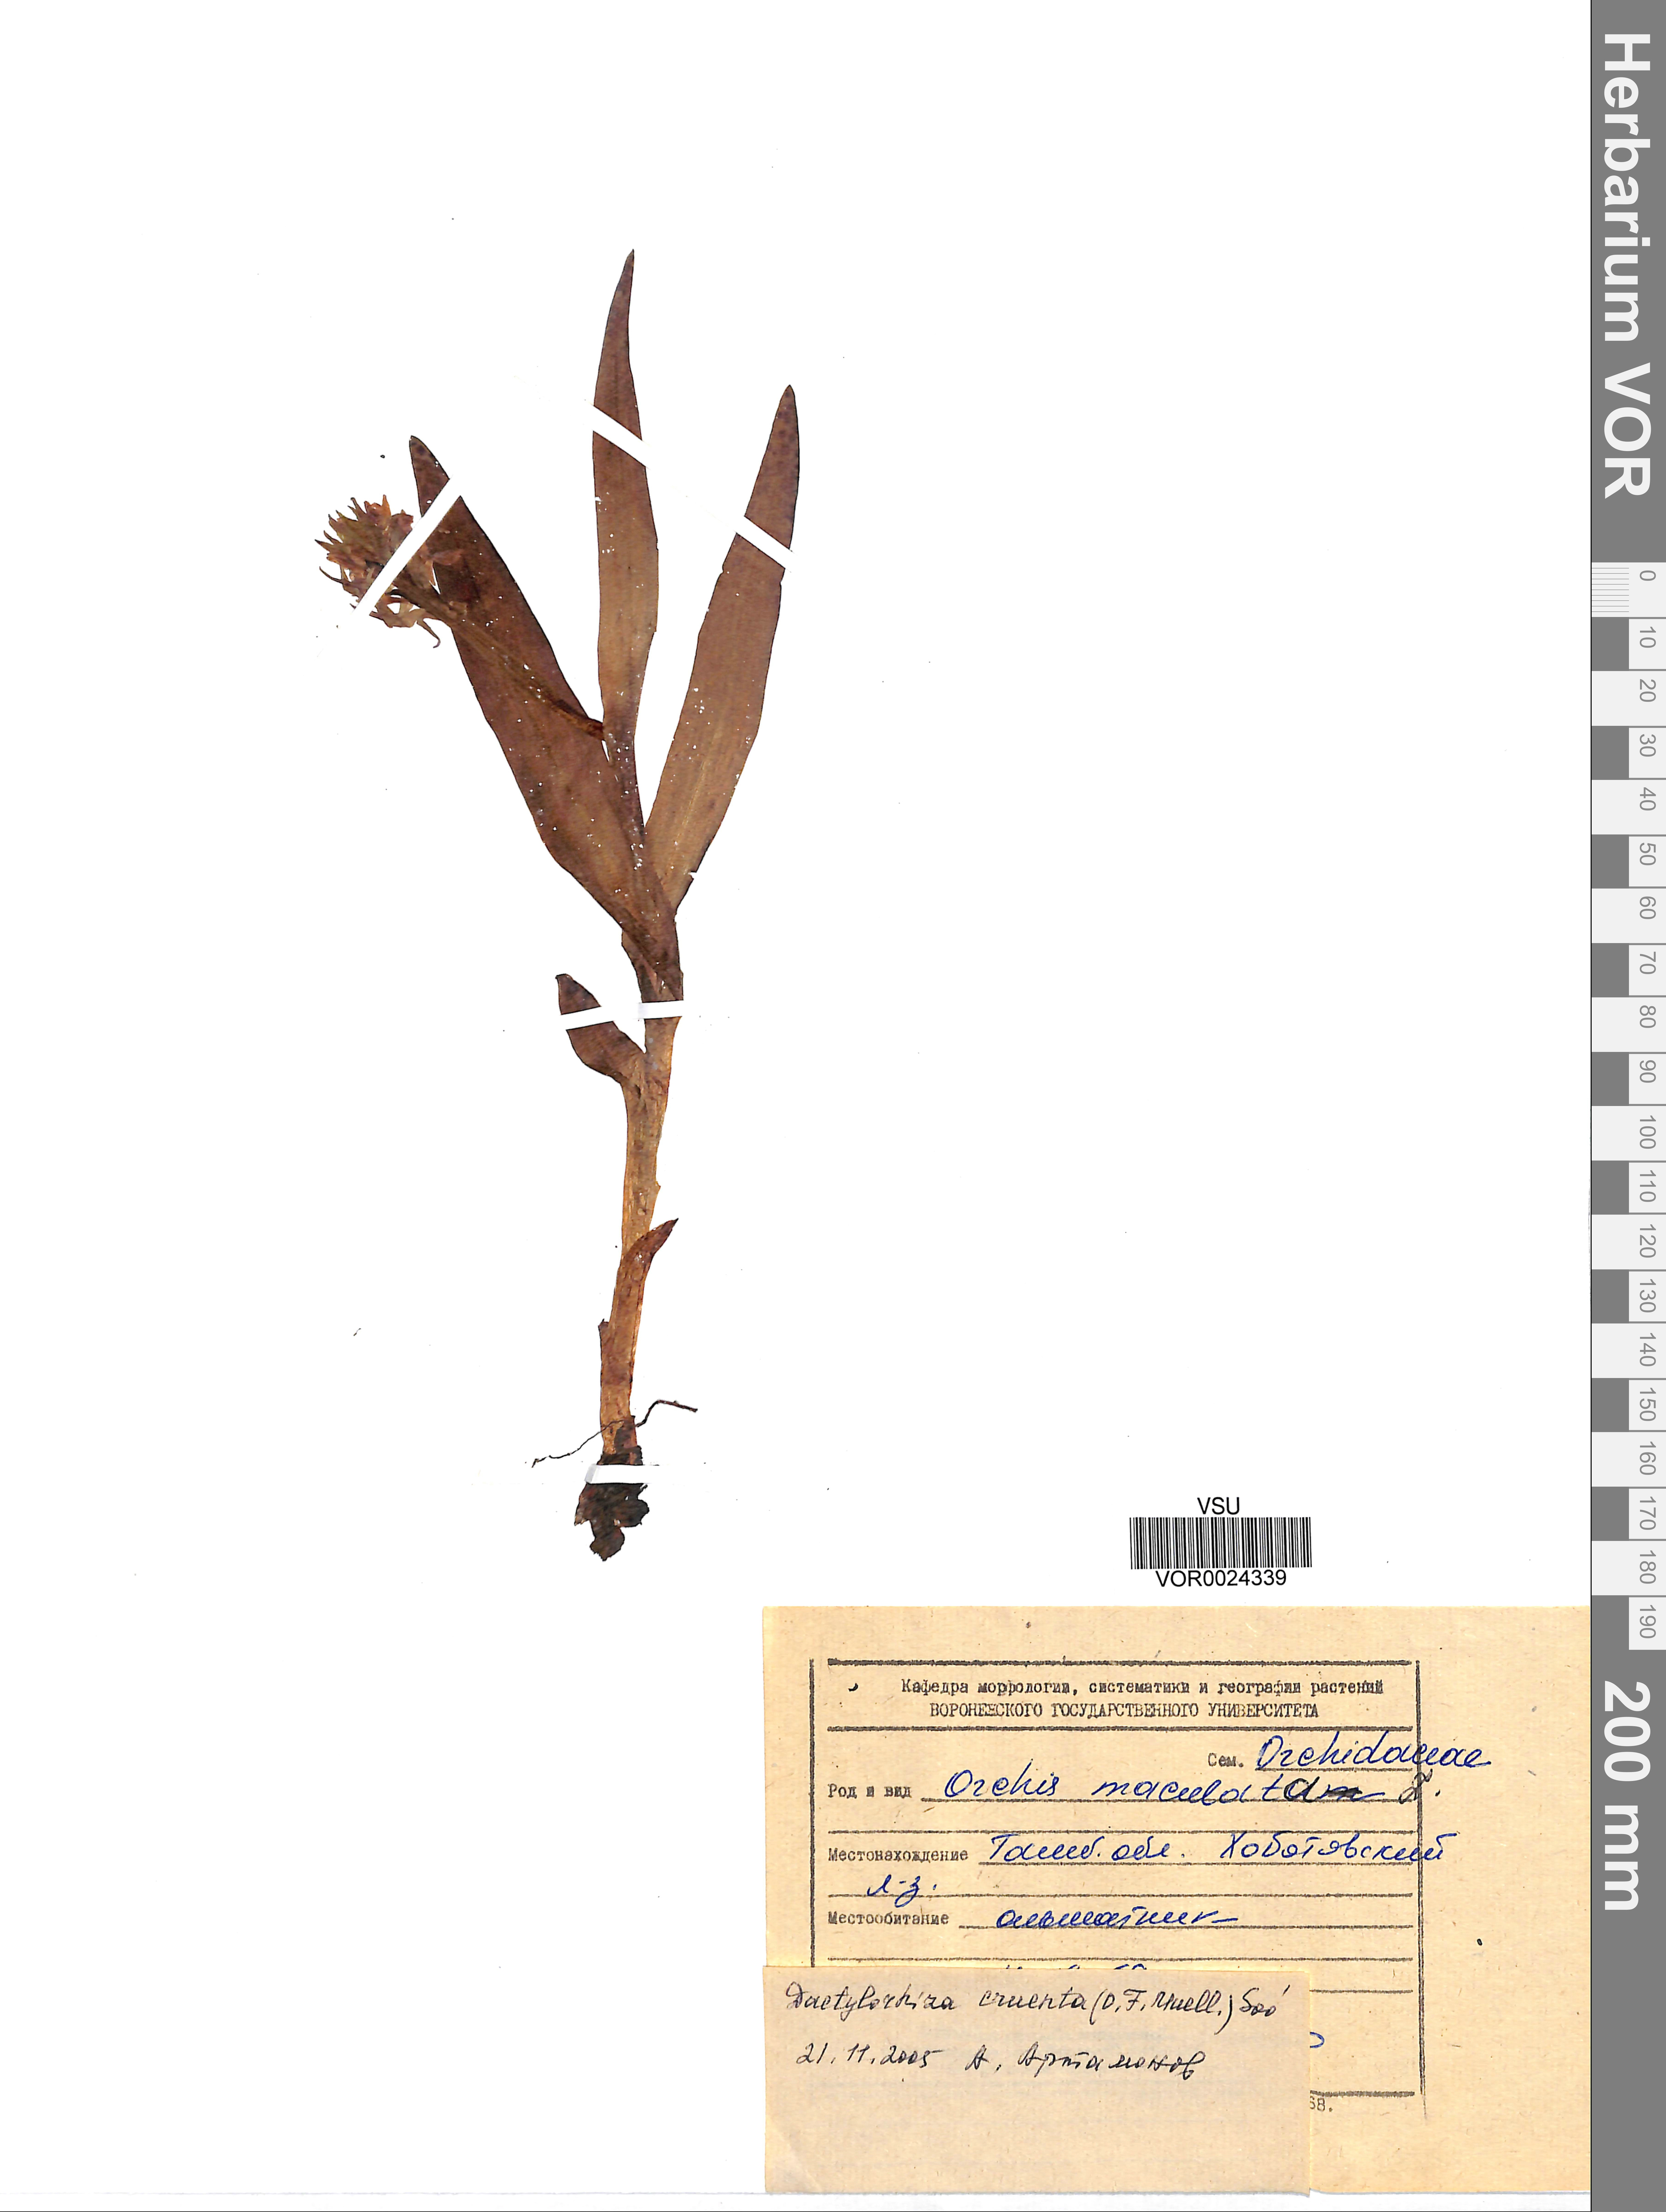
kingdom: Plantae
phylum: Tracheophyta
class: Liliopsida
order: Asparagales
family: Orchidaceae
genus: Dactylorhiza
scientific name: Dactylorhiza incarnata
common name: Early marsh-orchid
